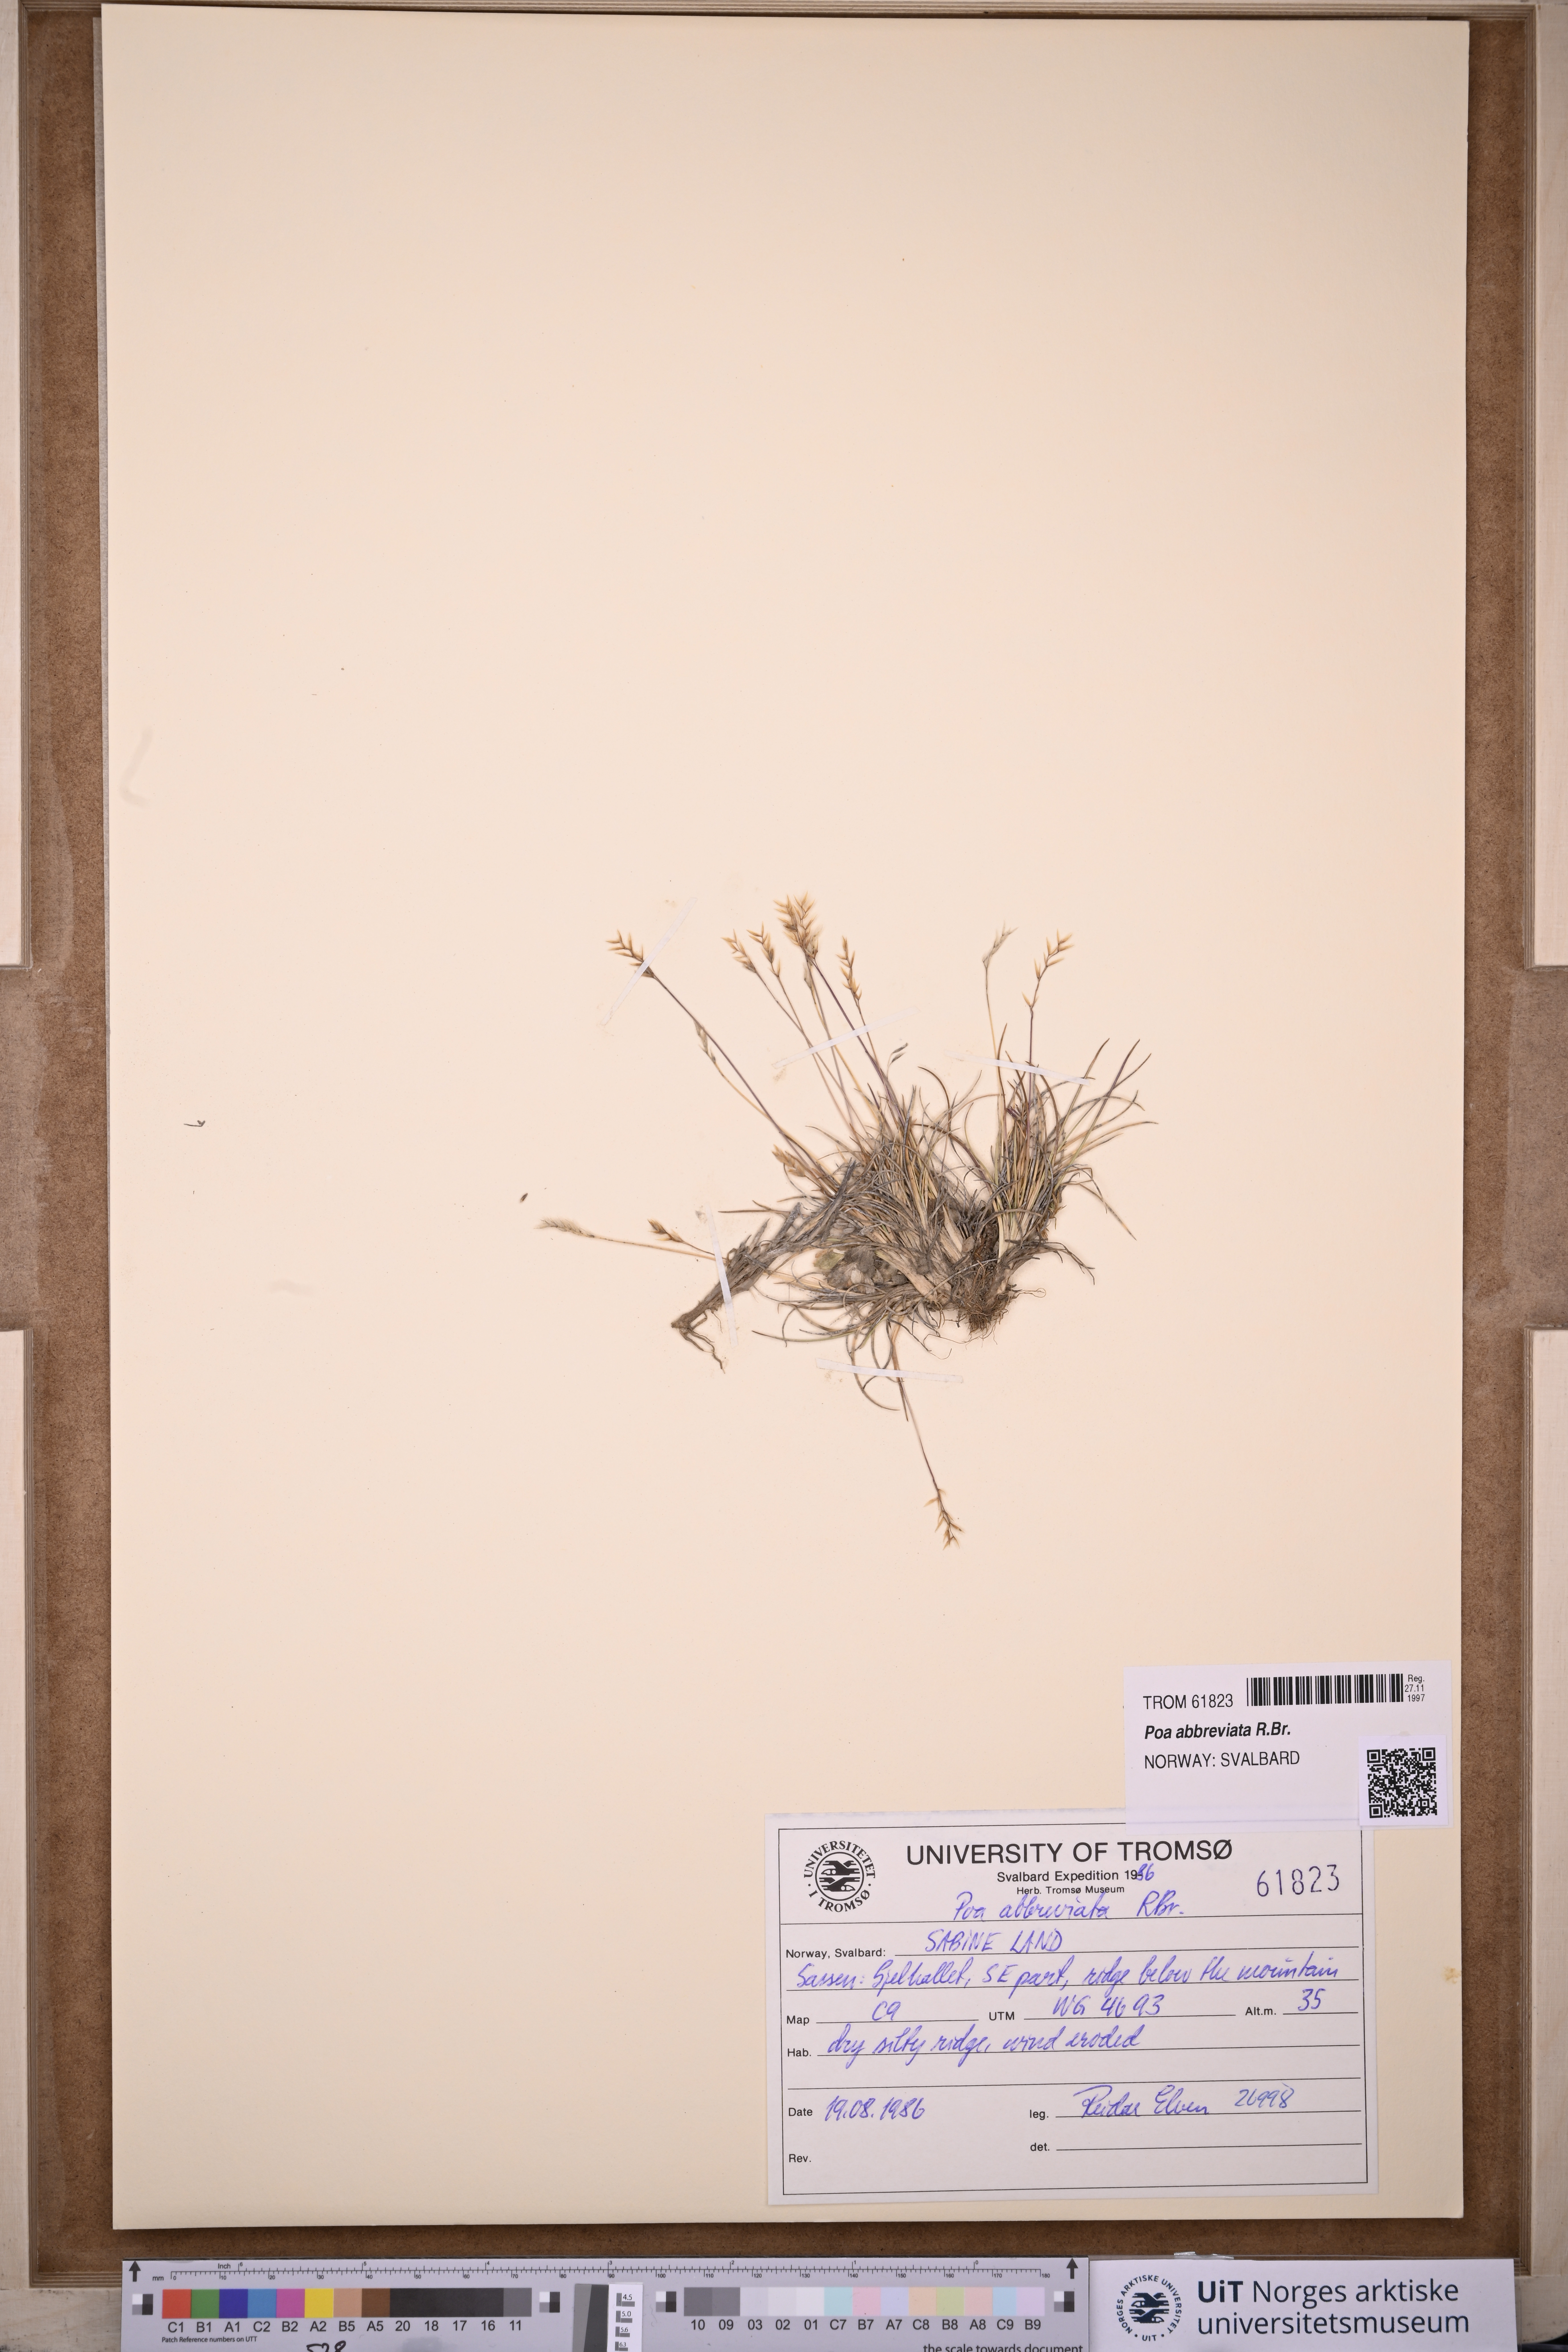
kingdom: Plantae
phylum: Tracheophyta
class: Liliopsida
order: Poales
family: Poaceae
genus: Poa
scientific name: Poa abbreviata
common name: Abbreviated bluegrass
